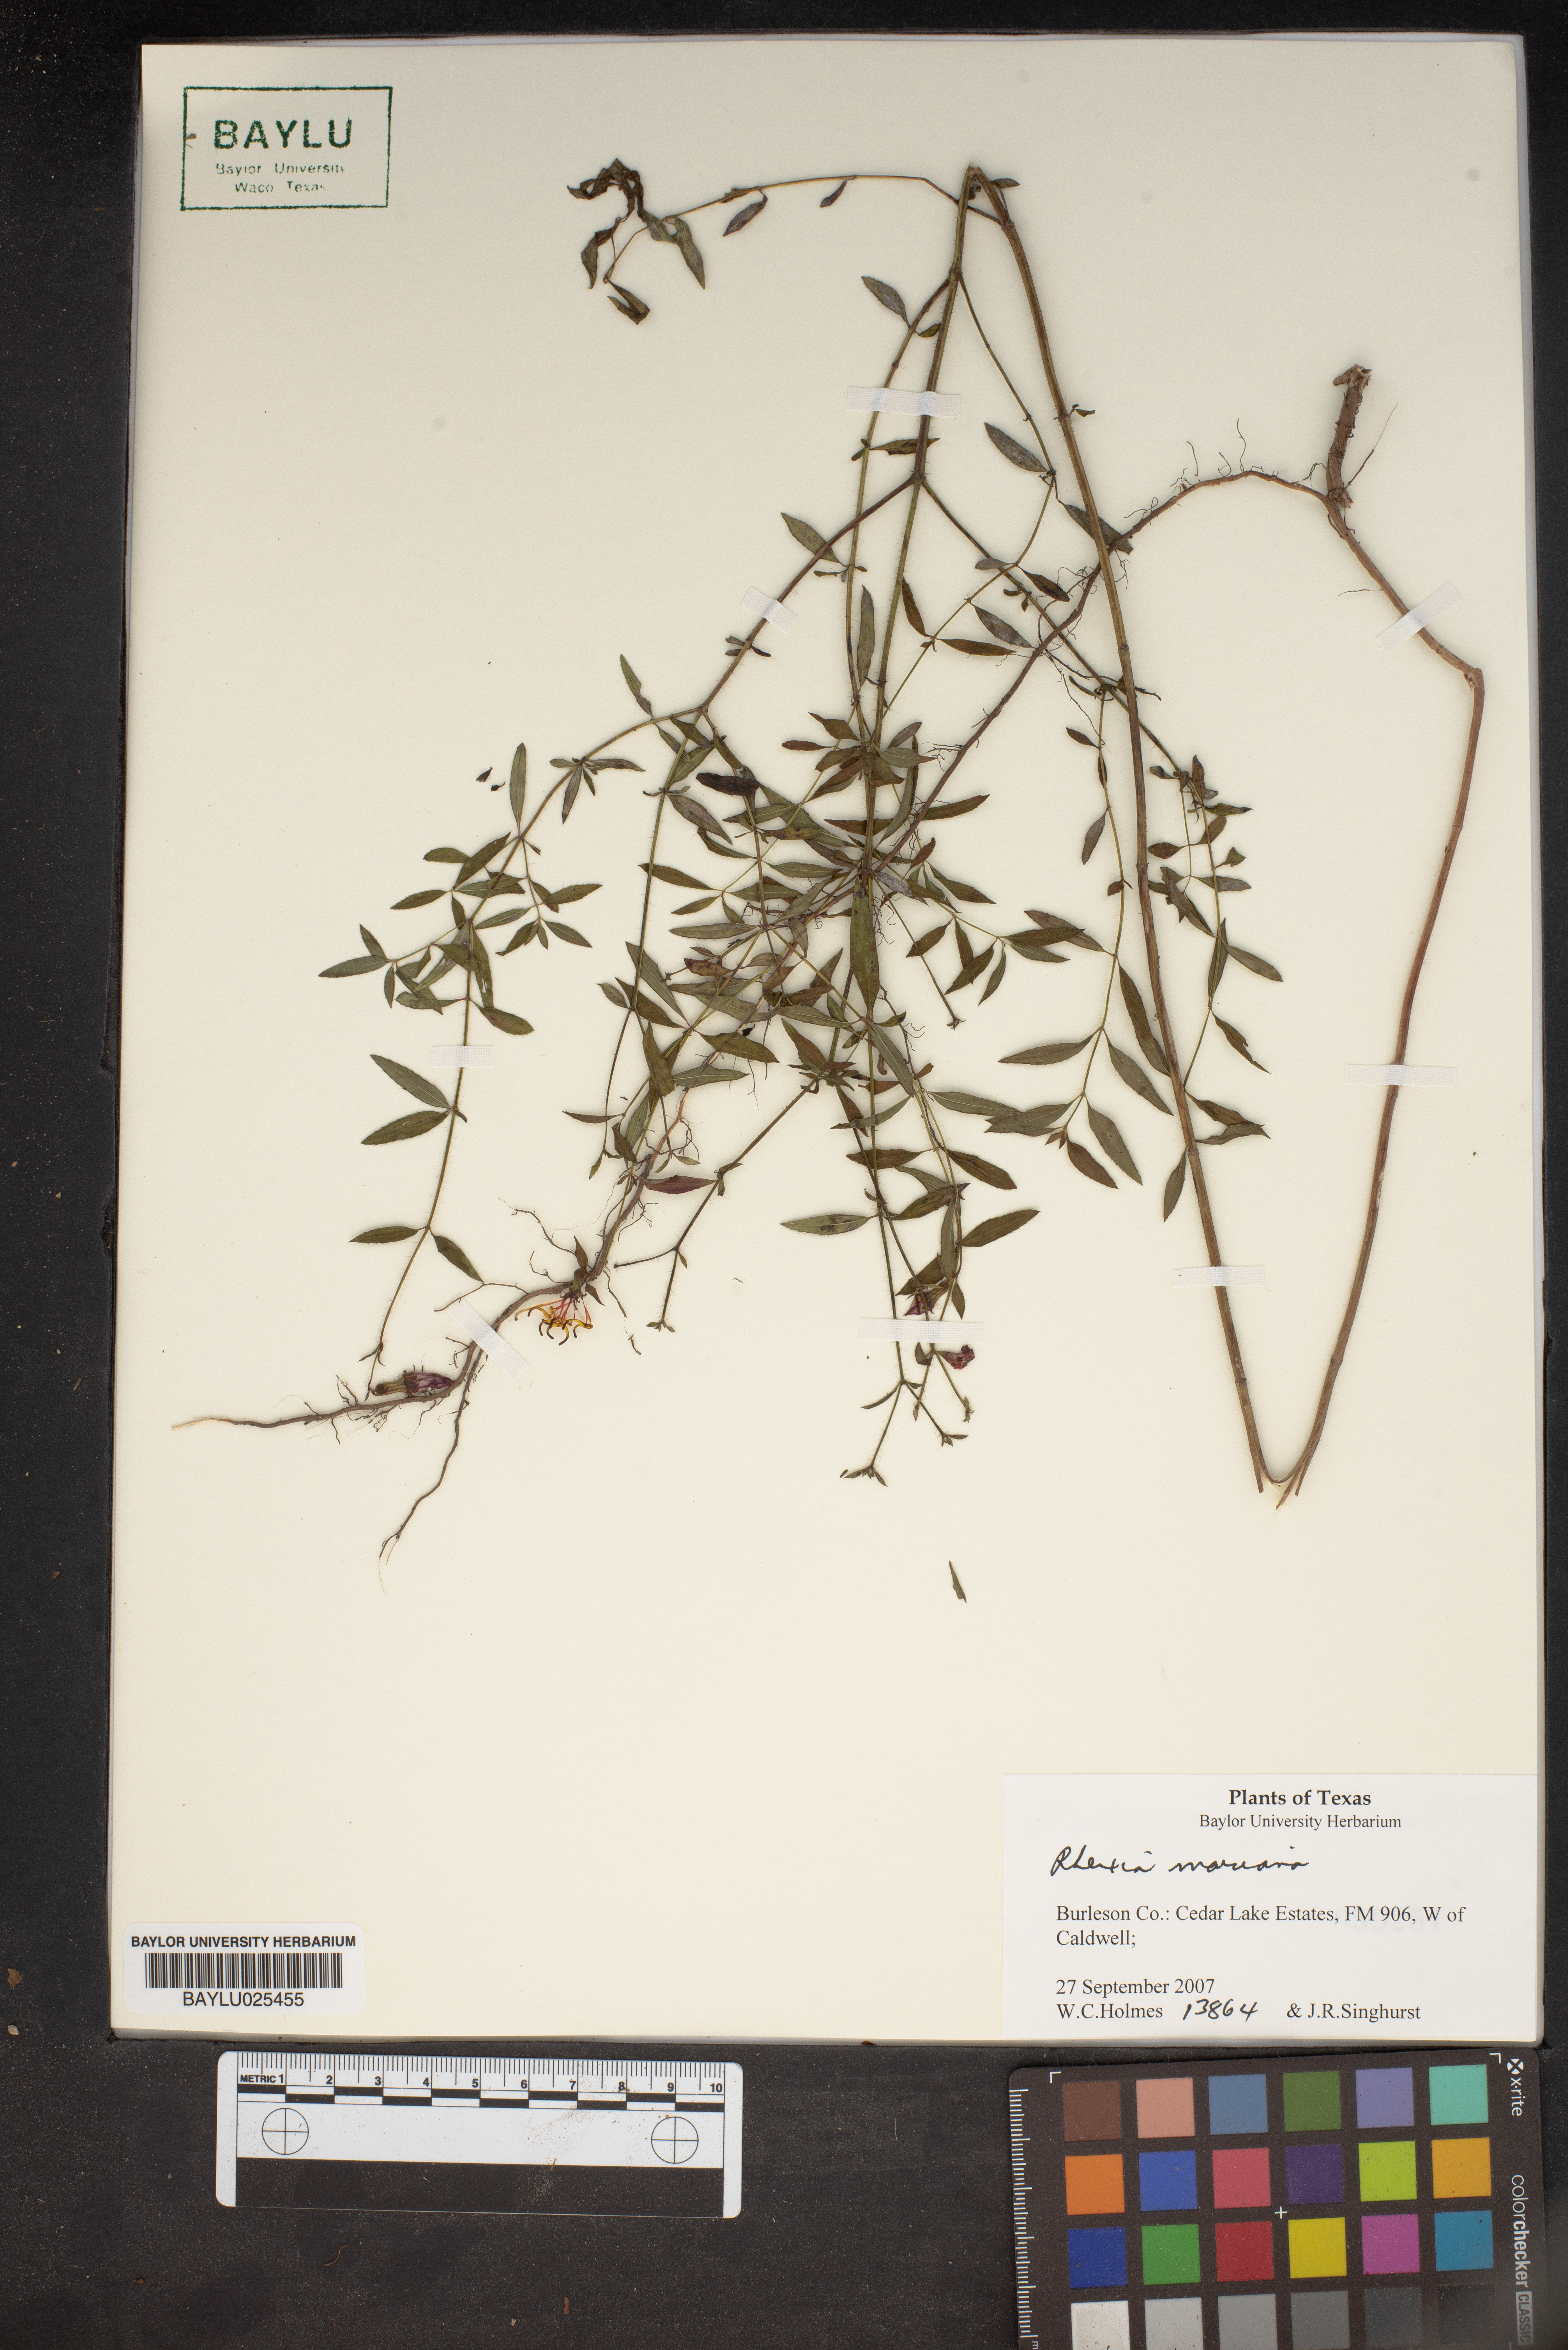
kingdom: Plantae
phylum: Tracheophyta
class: Magnoliopsida
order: Myrtales
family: Melastomataceae
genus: Rhexia
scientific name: Rhexia mariana
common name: Dull meadow-pitcher
